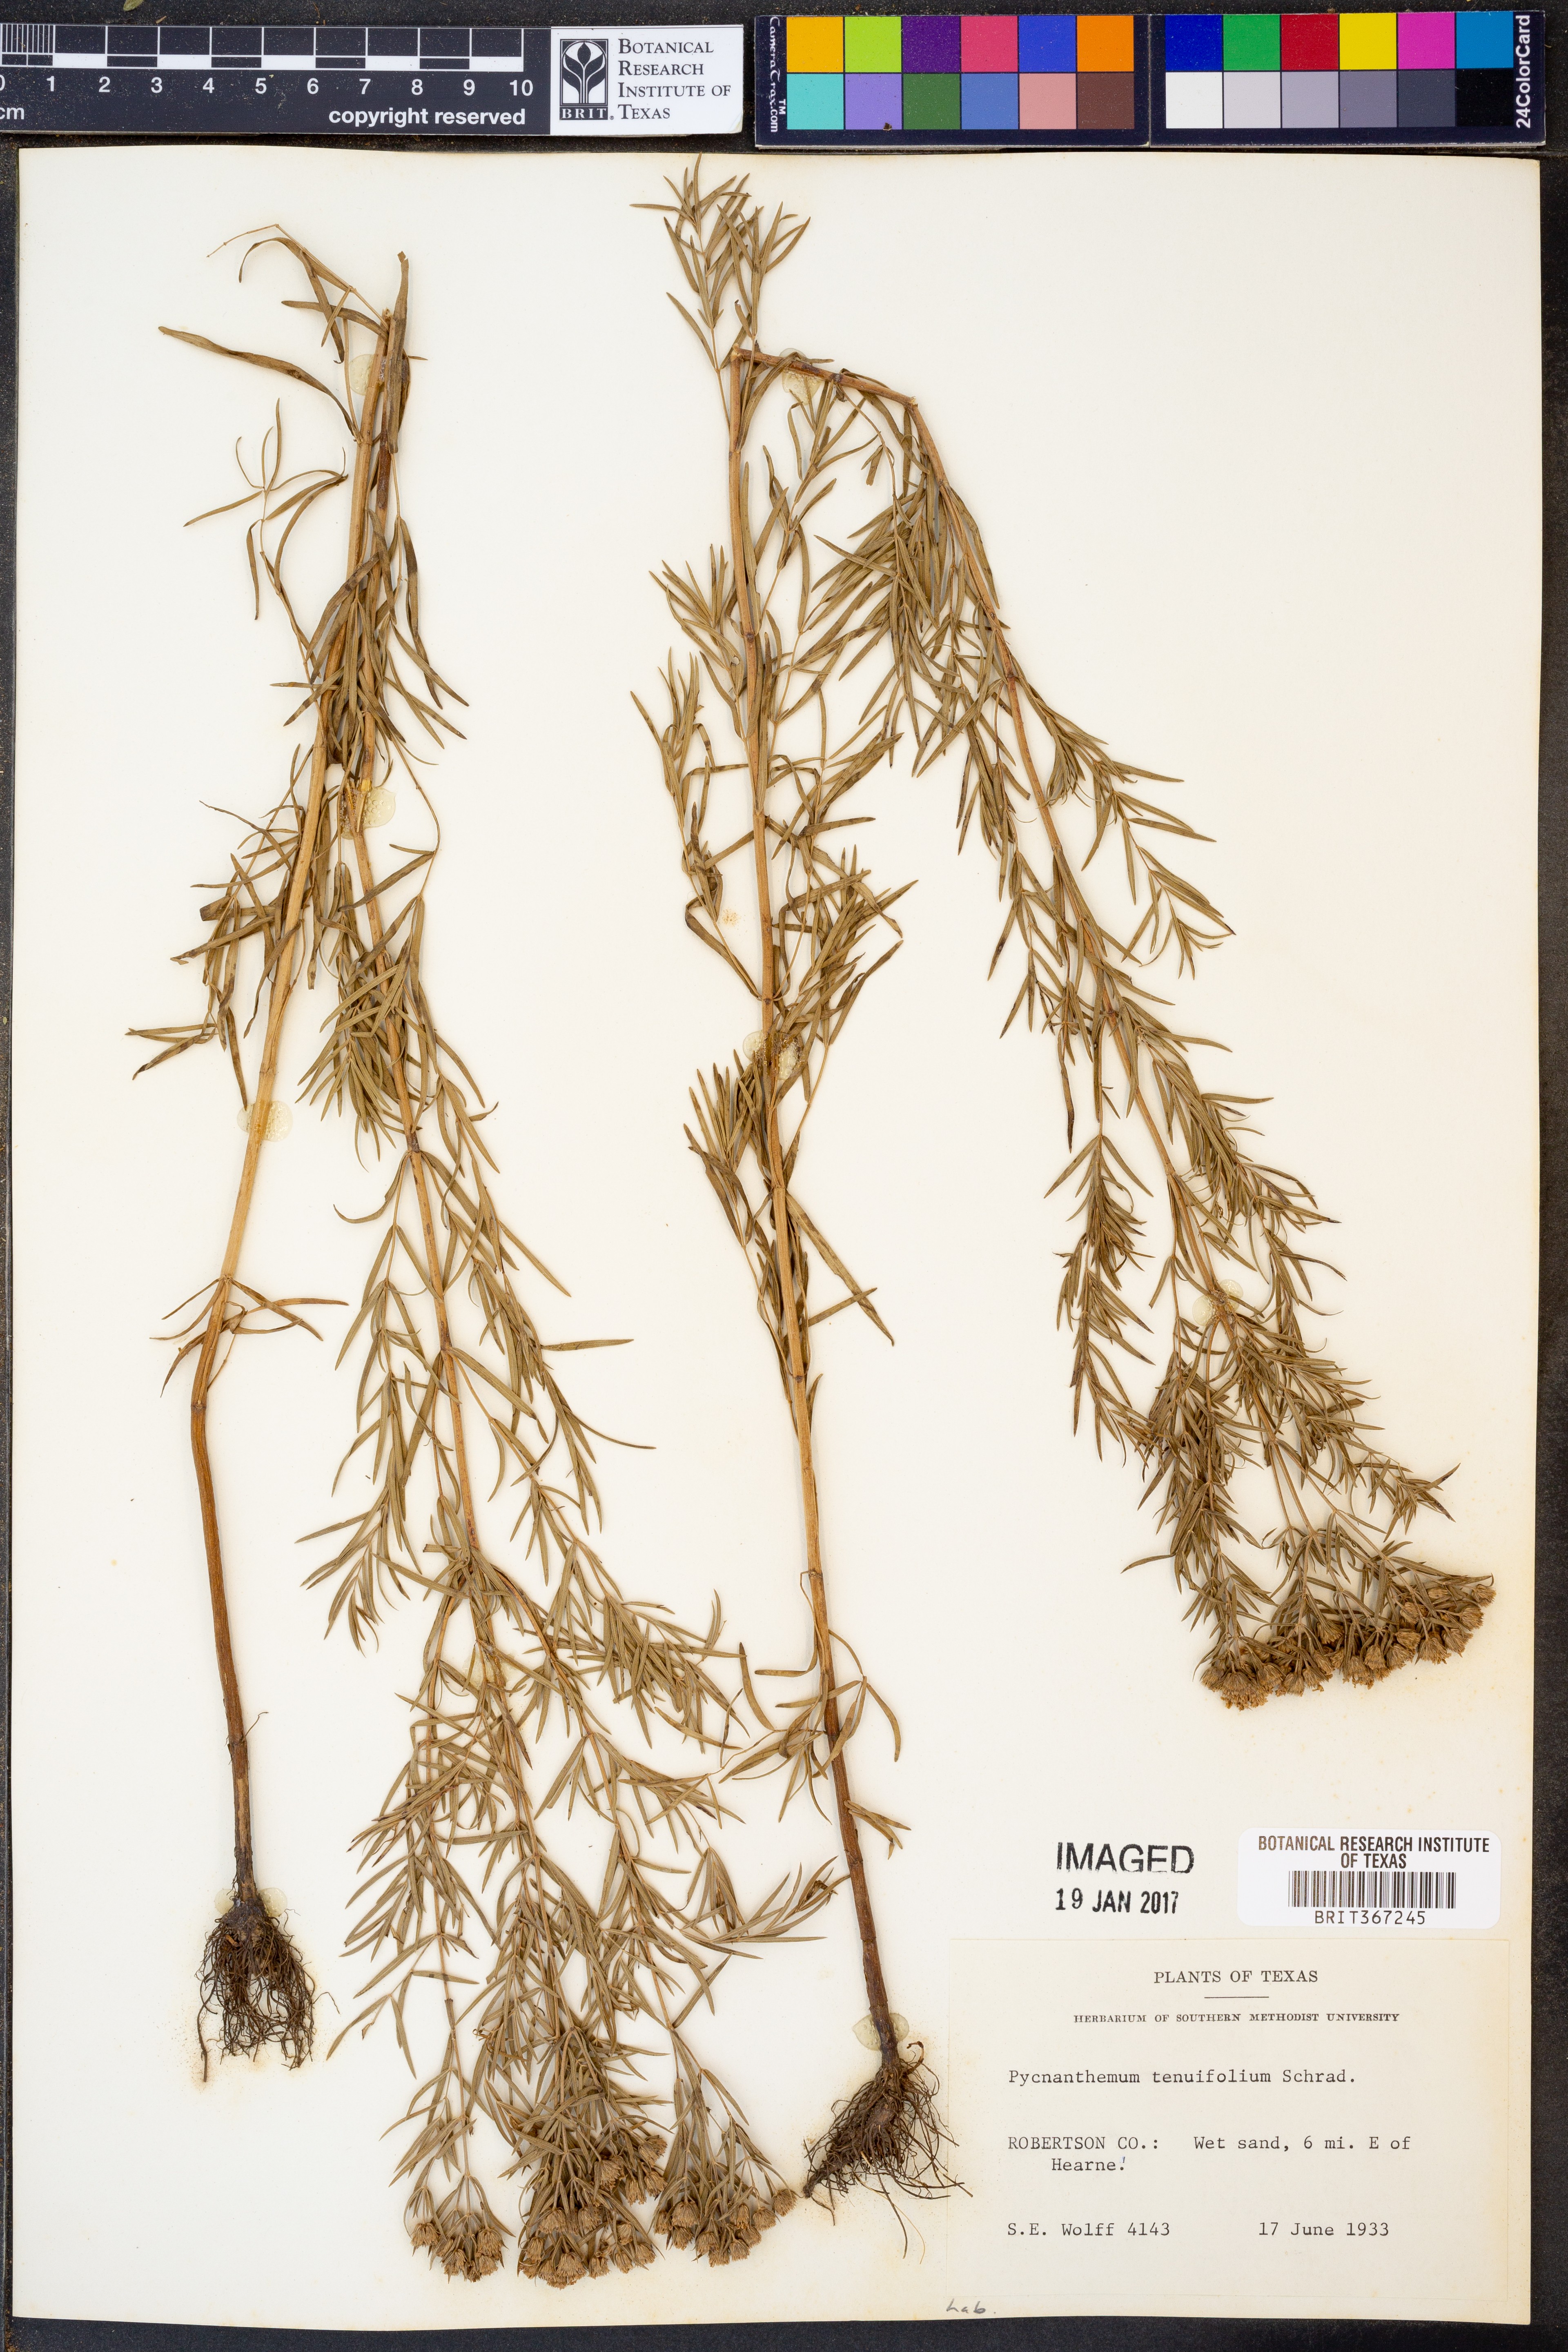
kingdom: Plantae
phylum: Tracheophyta
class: Magnoliopsida
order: Lamiales
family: Lamiaceae
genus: Pycnanthemum
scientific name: Pycnanthemum tenuifolium
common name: Narrow-leaf mountain-mint
